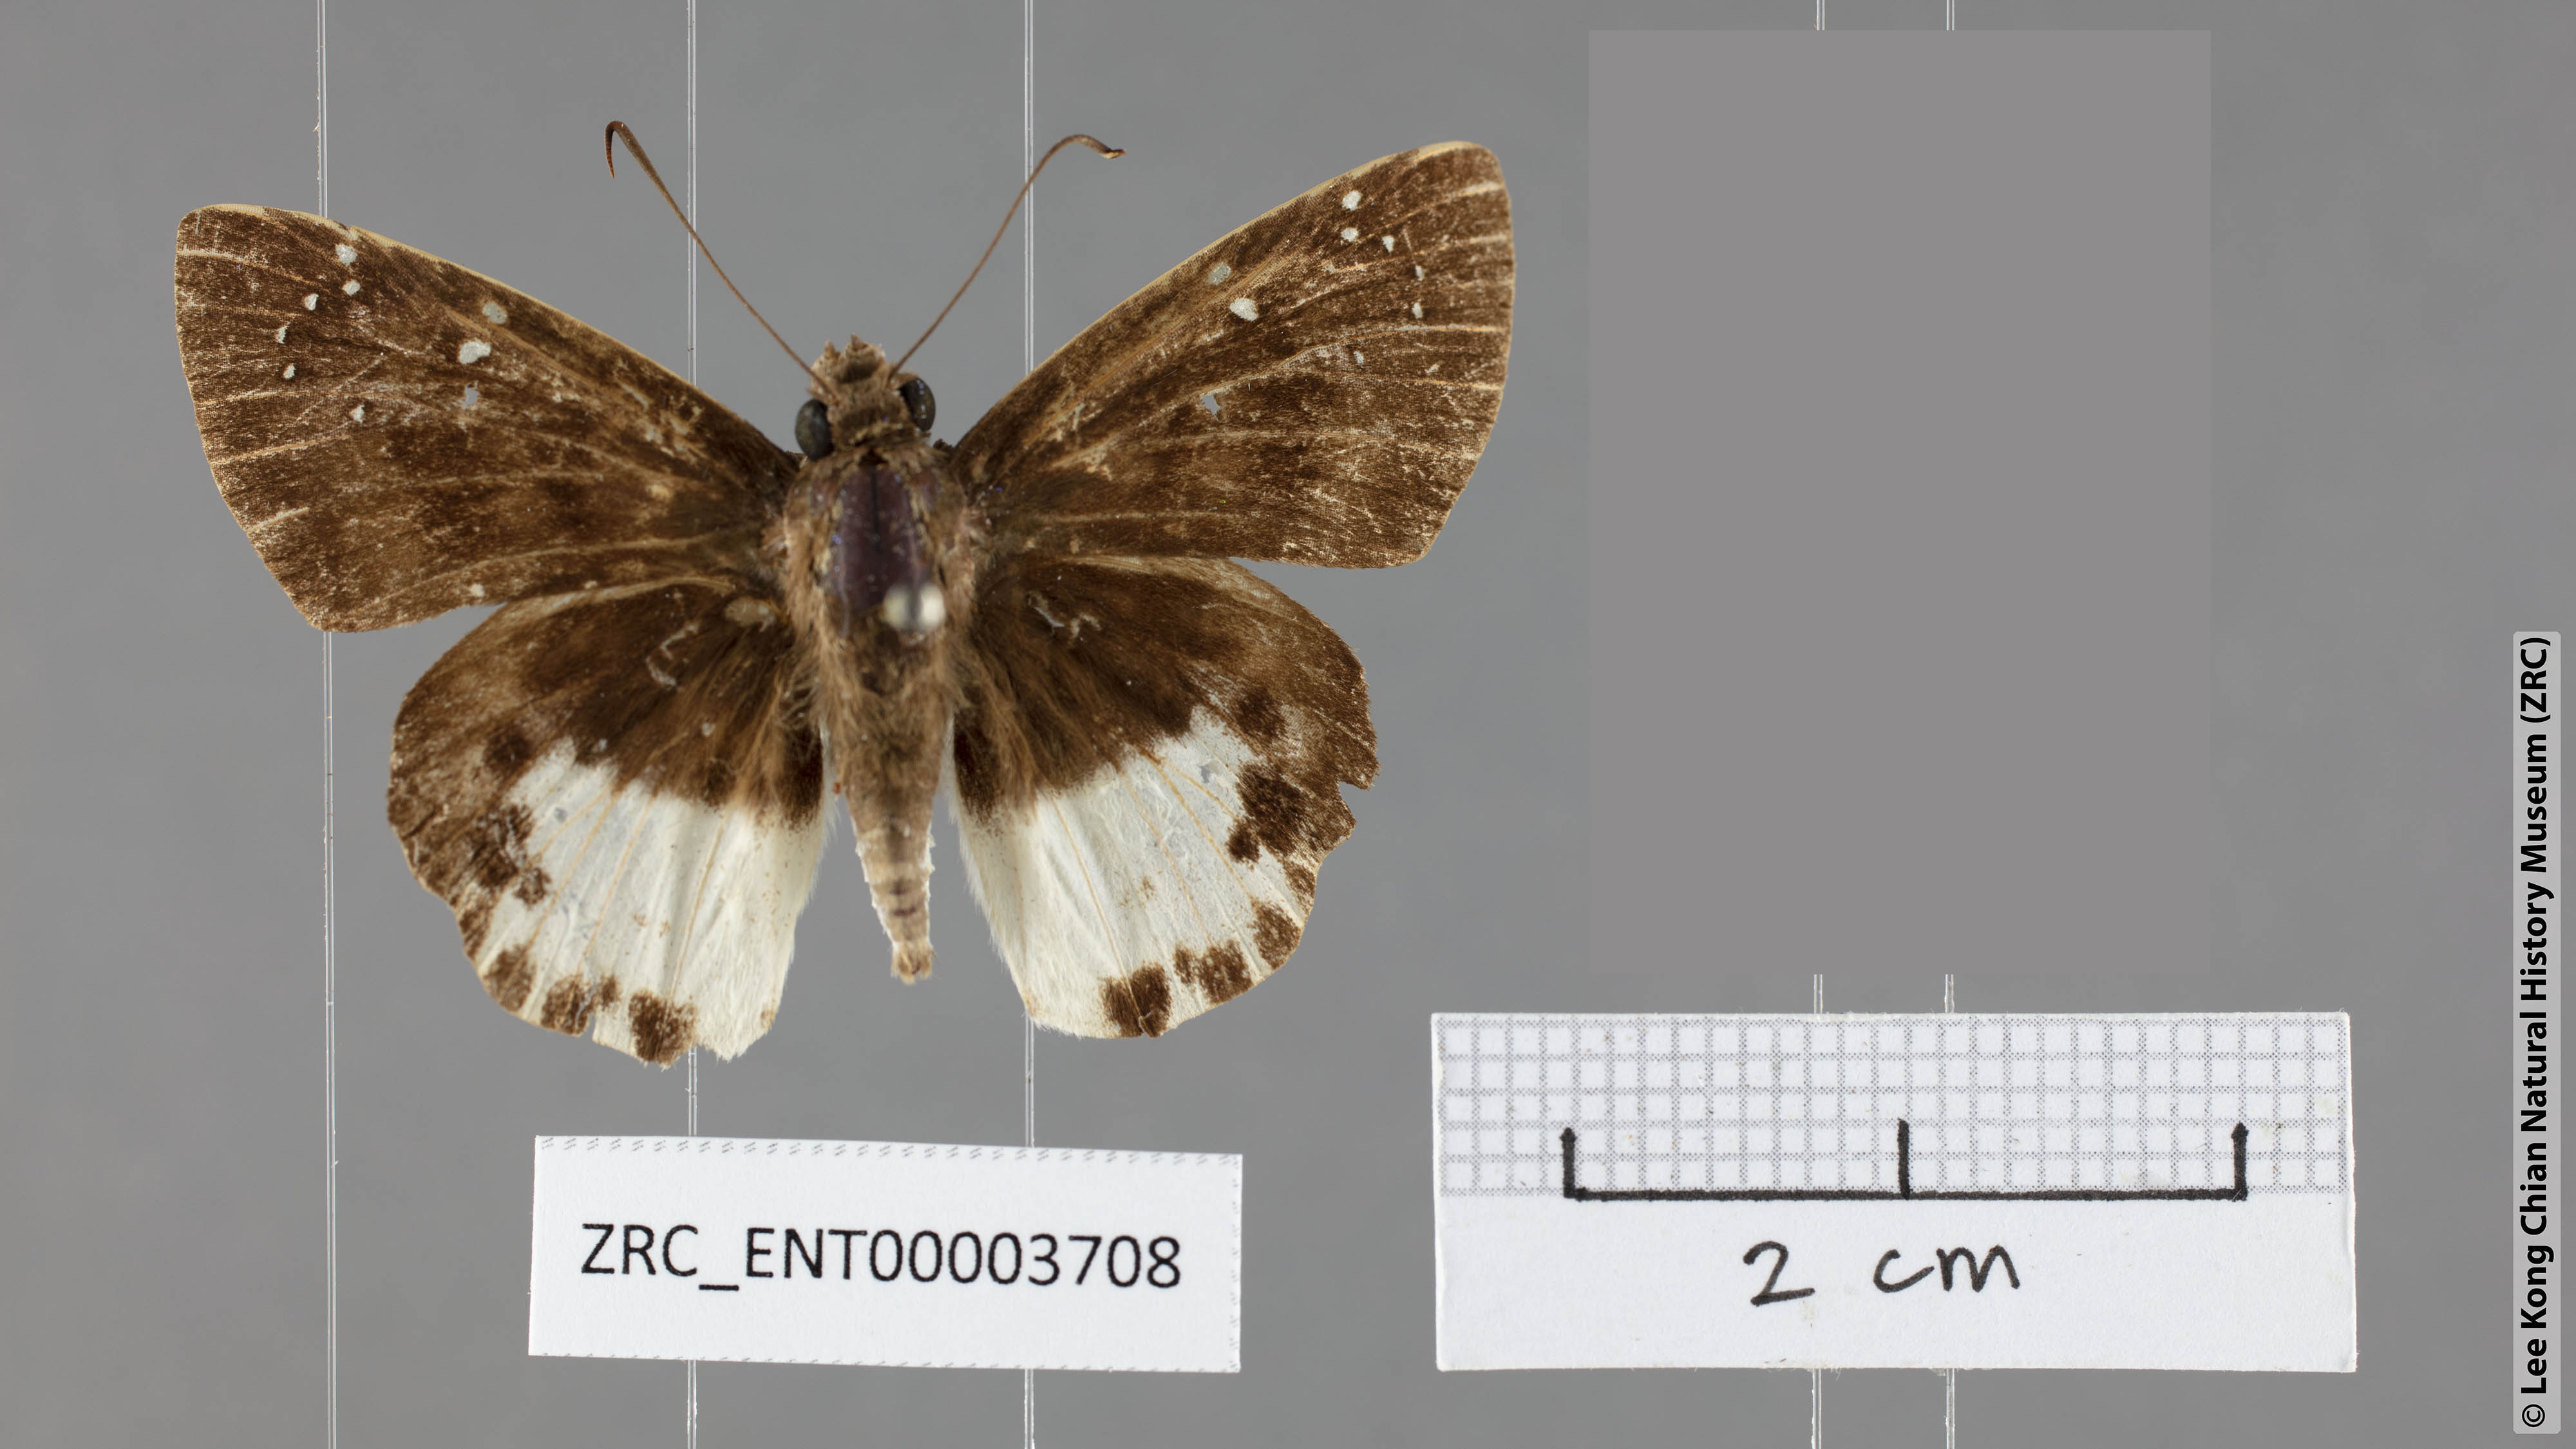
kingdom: Animalia
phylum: Arthropoda
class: Insecta
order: Lepidoptera
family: Hesperiidae
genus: Tagiades
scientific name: Tagiades litigiosa
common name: Water snow flat
